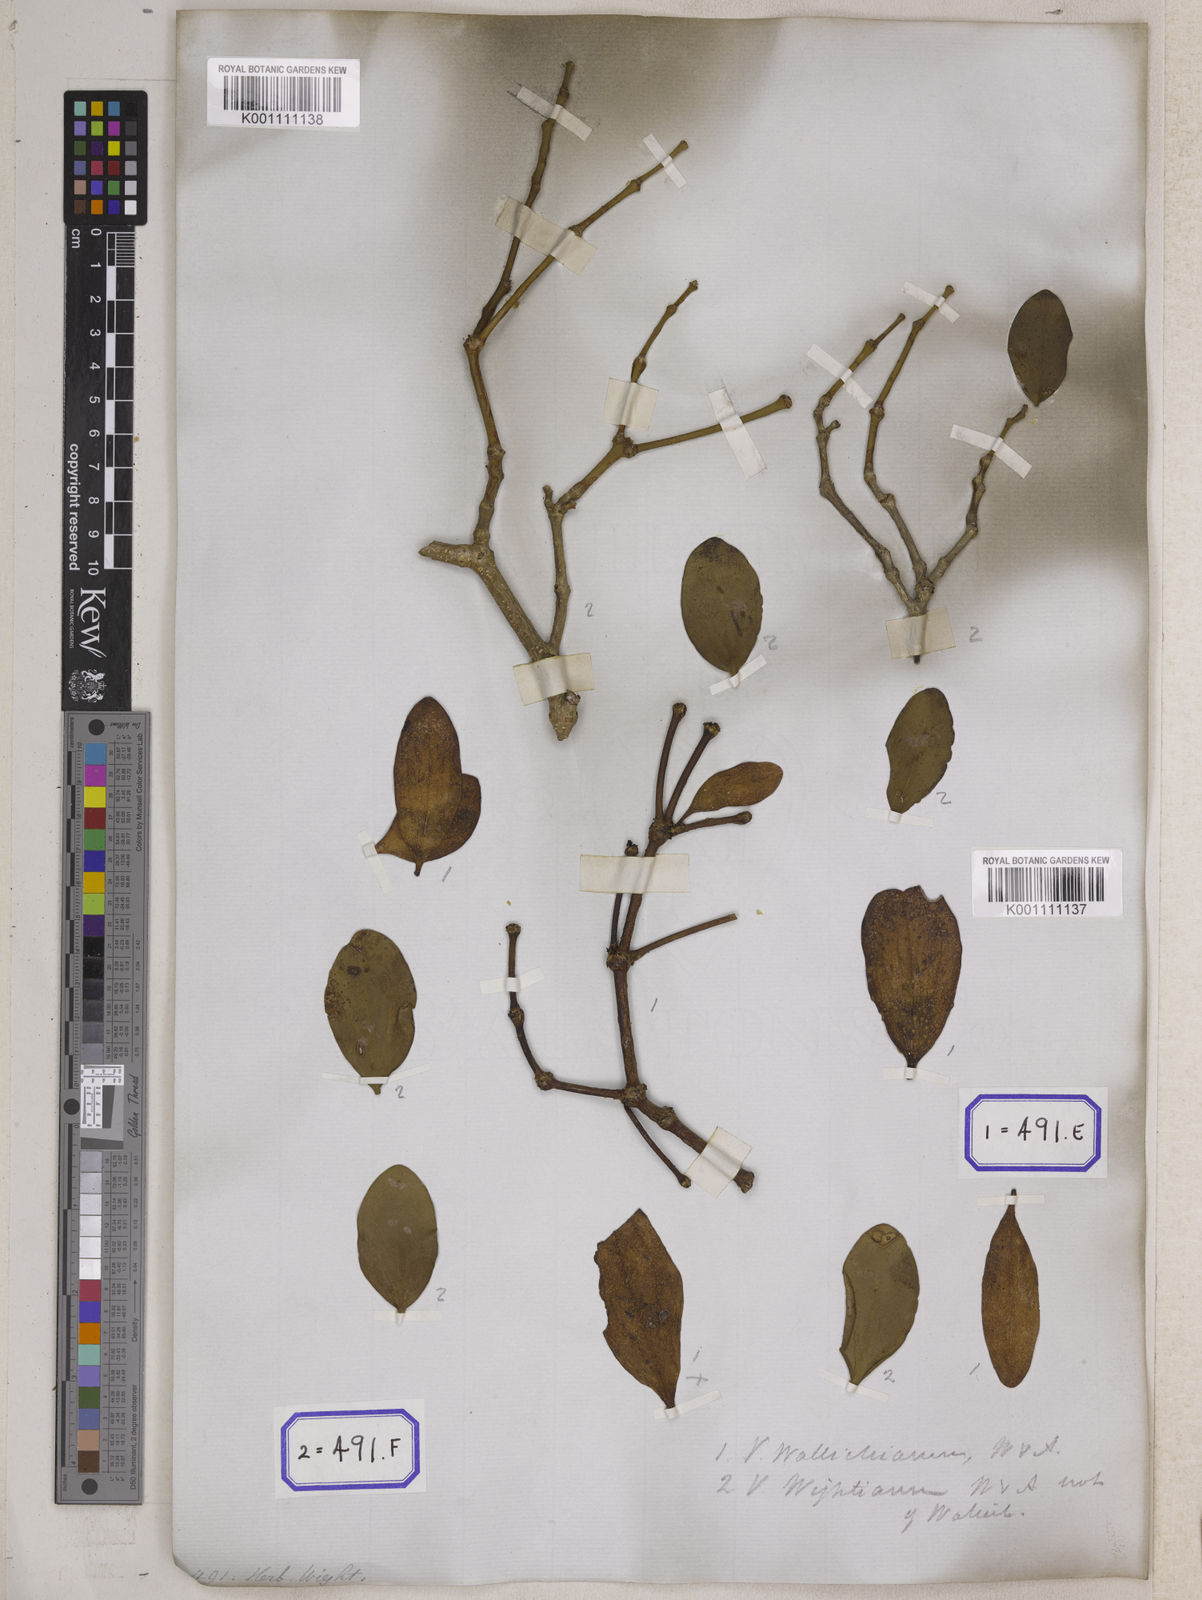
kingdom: Plantae
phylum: Tracheophyta
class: Magnoliopsida
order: Santalales
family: Viscaceae
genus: Viscum
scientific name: Viscum
